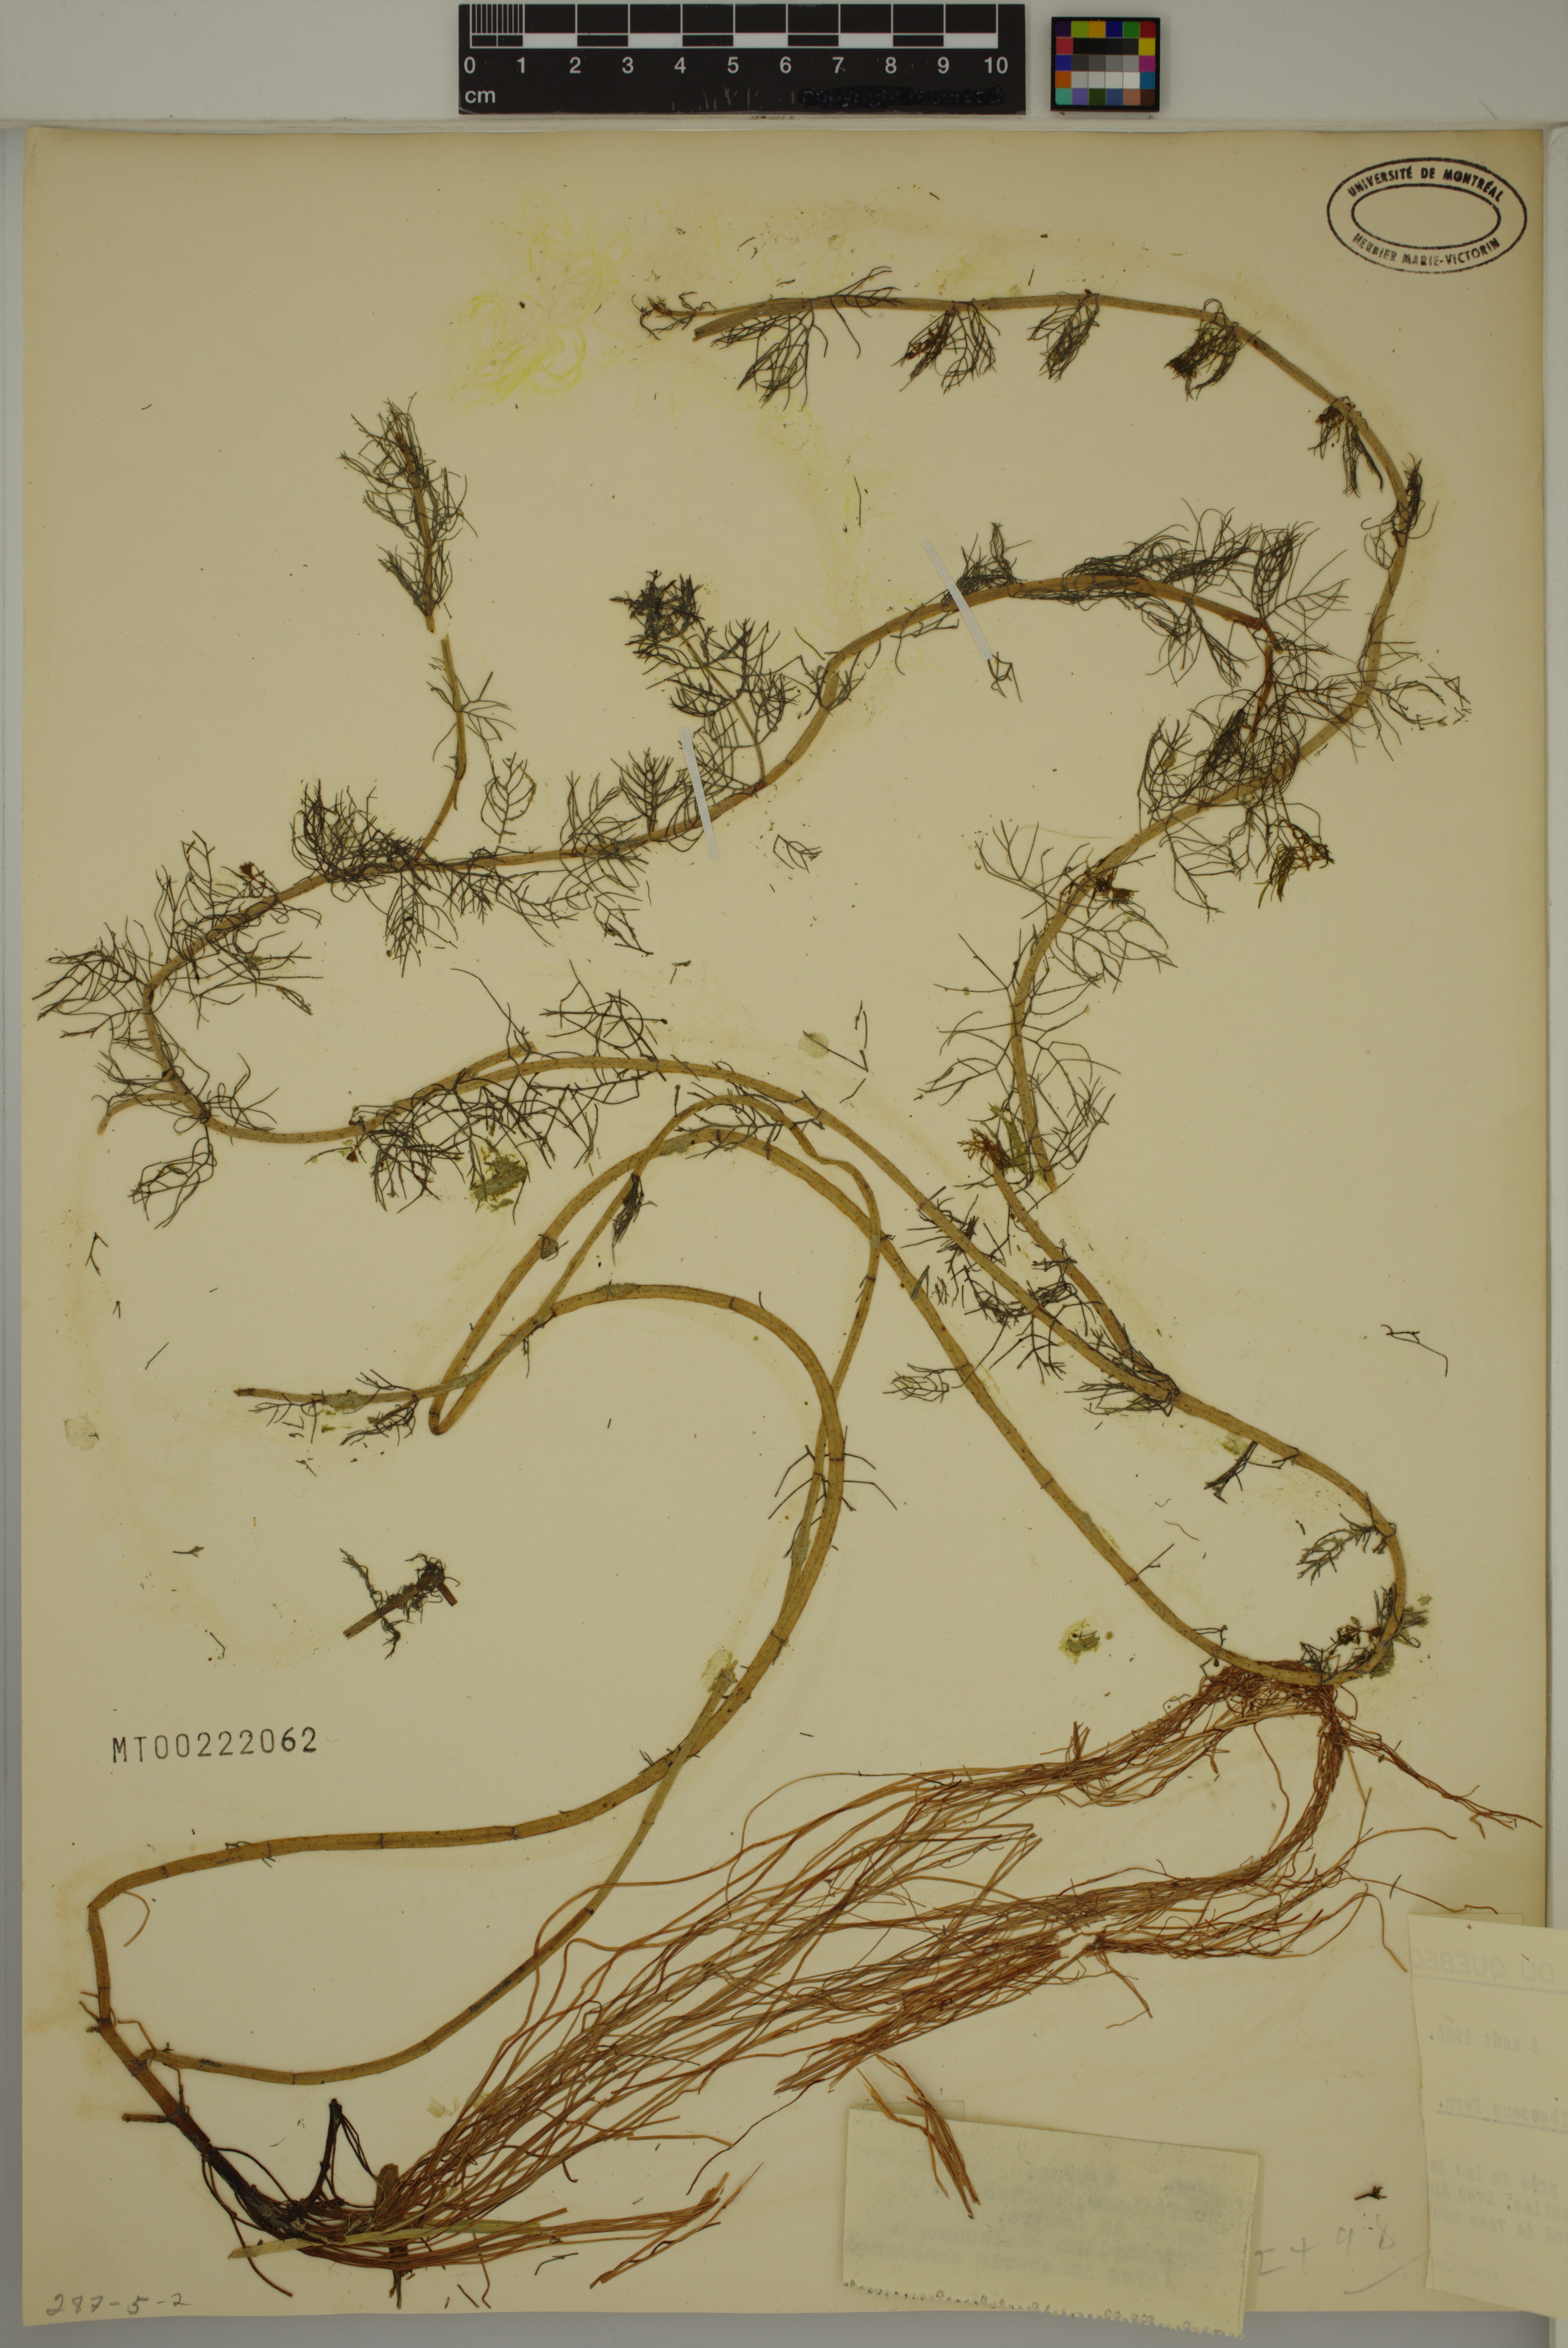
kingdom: Plantae
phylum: Tracheophyta
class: Magnoliopsida
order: Saxifragales
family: Haloragaceae
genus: Myriophyllum
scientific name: Myriophyllum sibiricum
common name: Siberian water-milfoil
